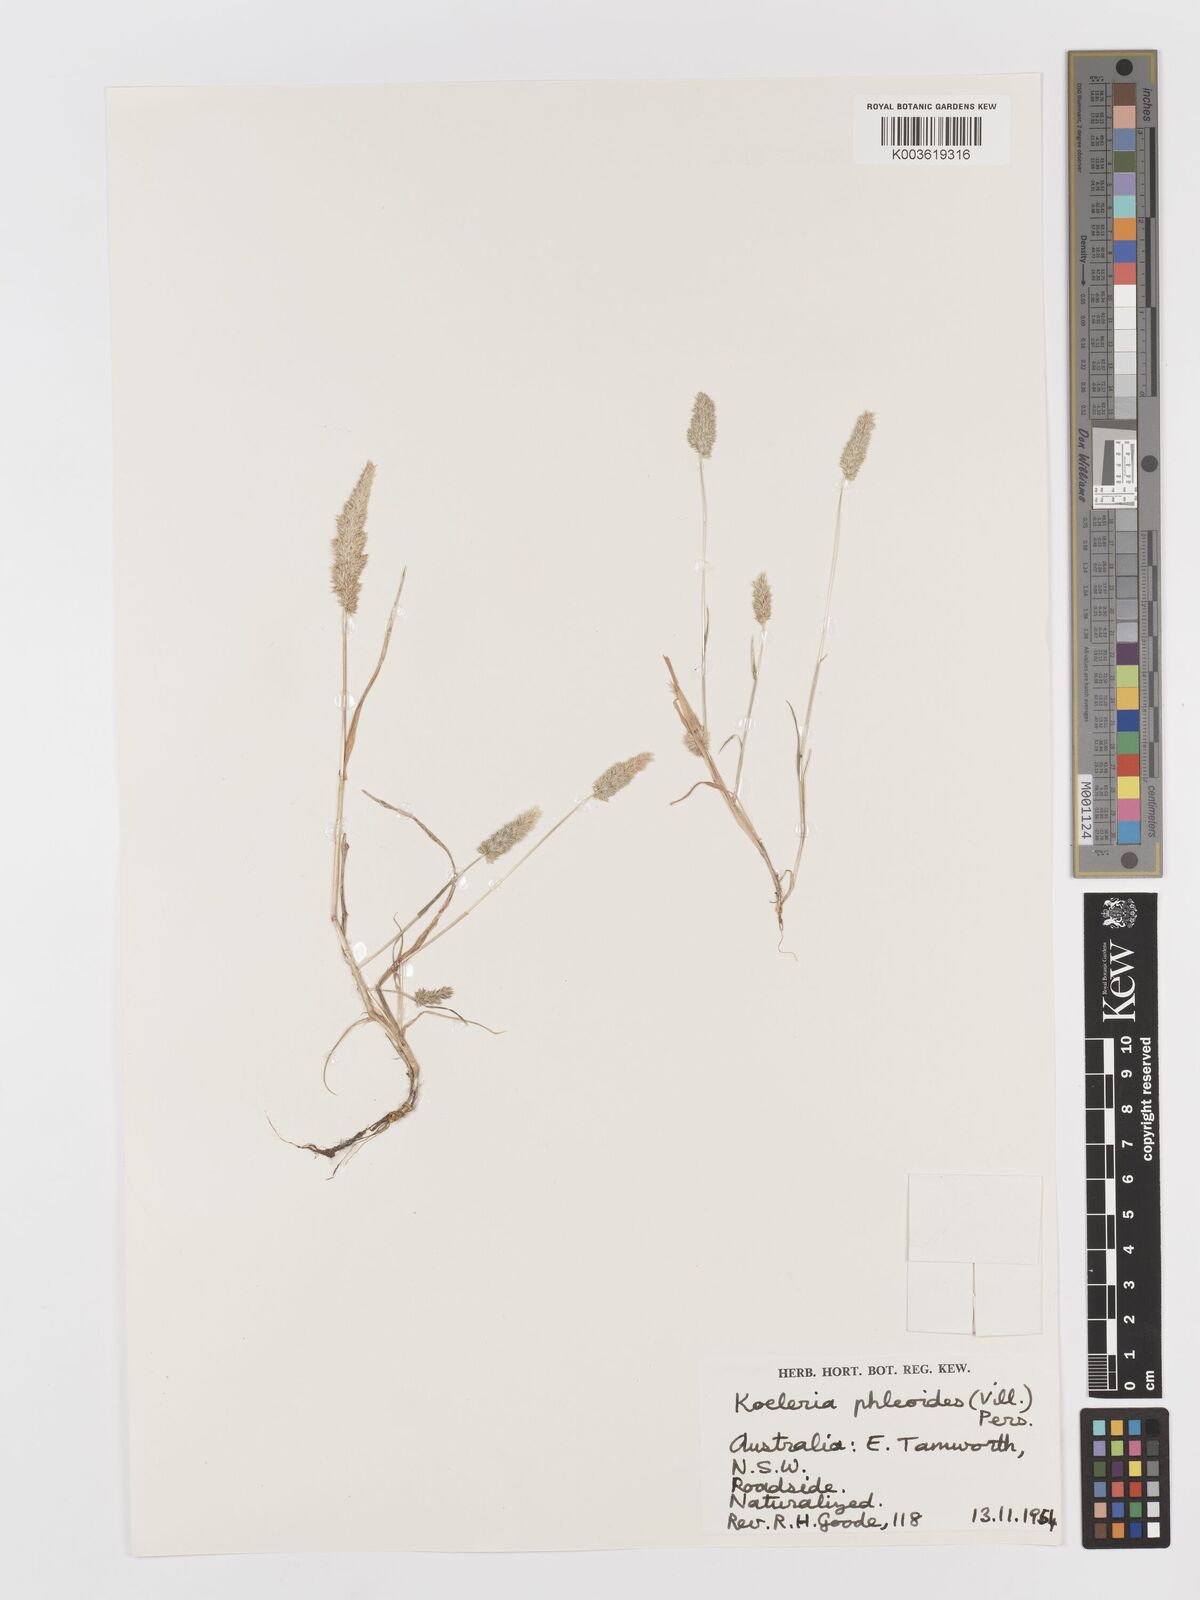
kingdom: Plantae
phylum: Tracheophyta
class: Liliopsida
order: Poales
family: Poaceae
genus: Rostraria
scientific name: Rostraria cristata
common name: Mediterranean hair-grass
